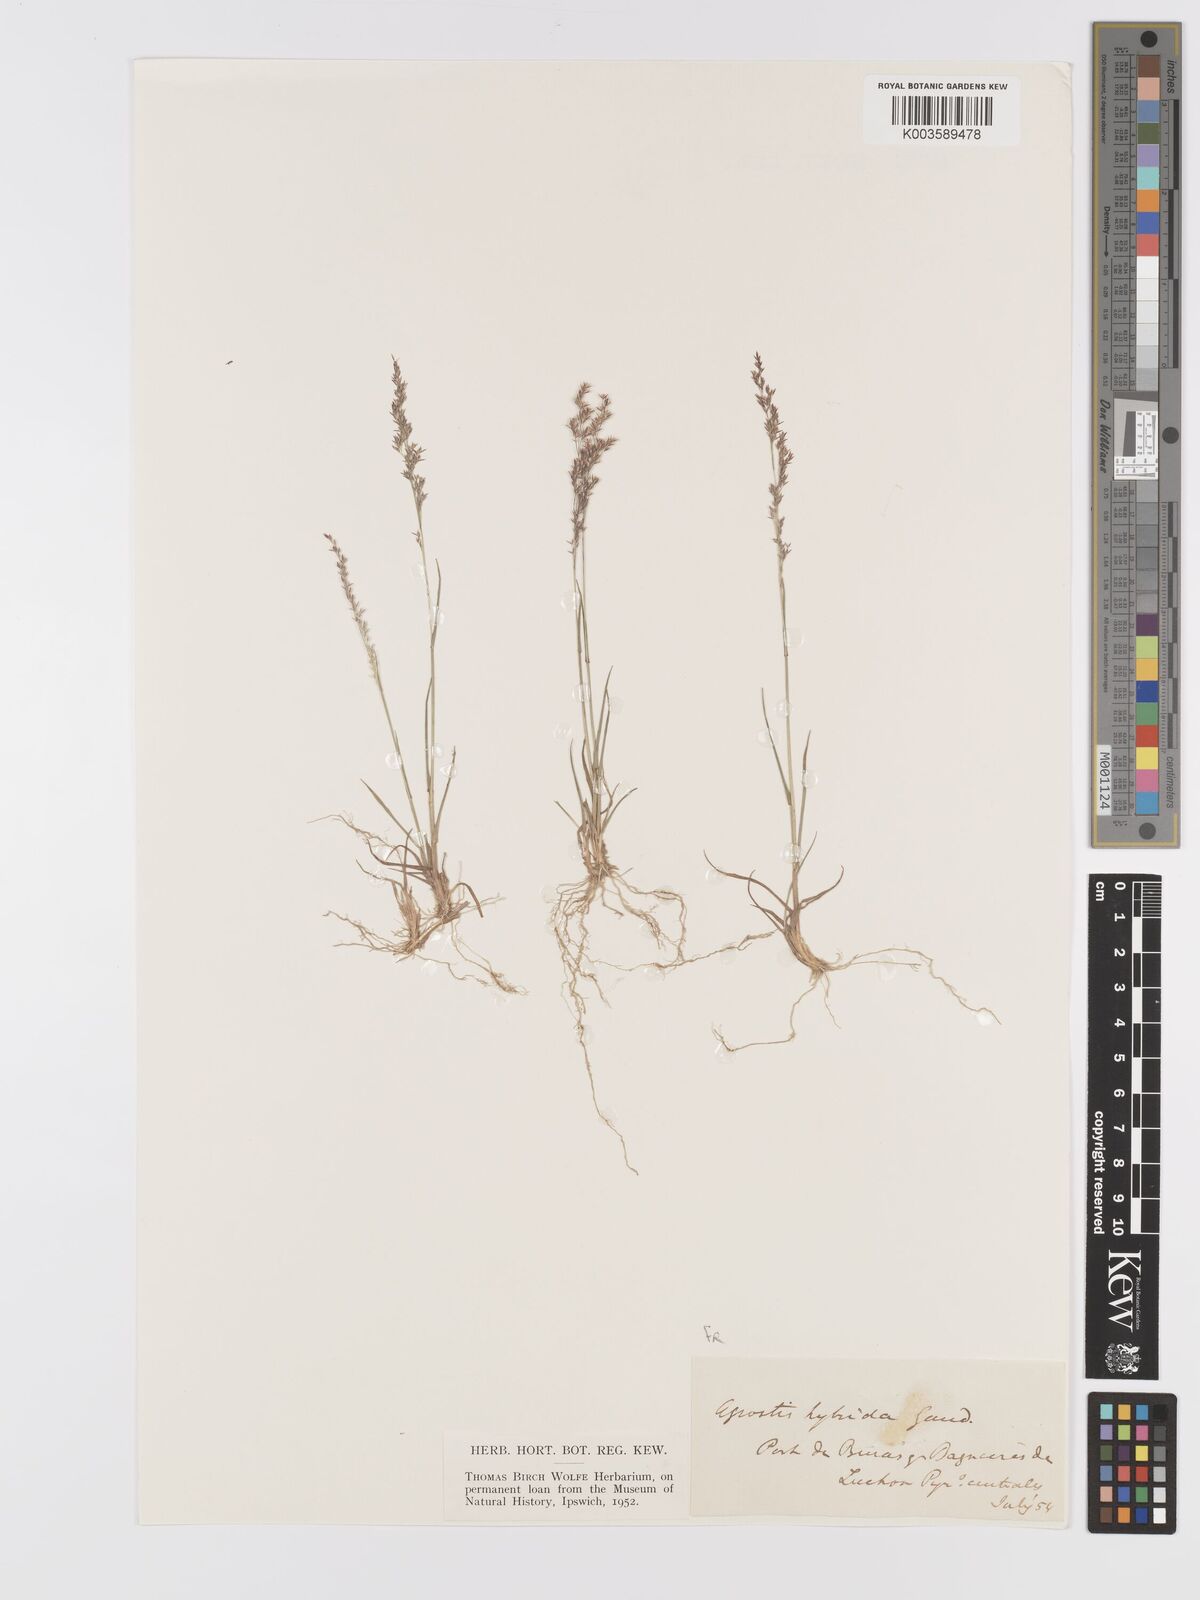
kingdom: Plantae
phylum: Tracheophyta
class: Liliopsida
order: Poales
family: Poaceae
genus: Agrostis
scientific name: Agrostis canina
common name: Velvet bent
